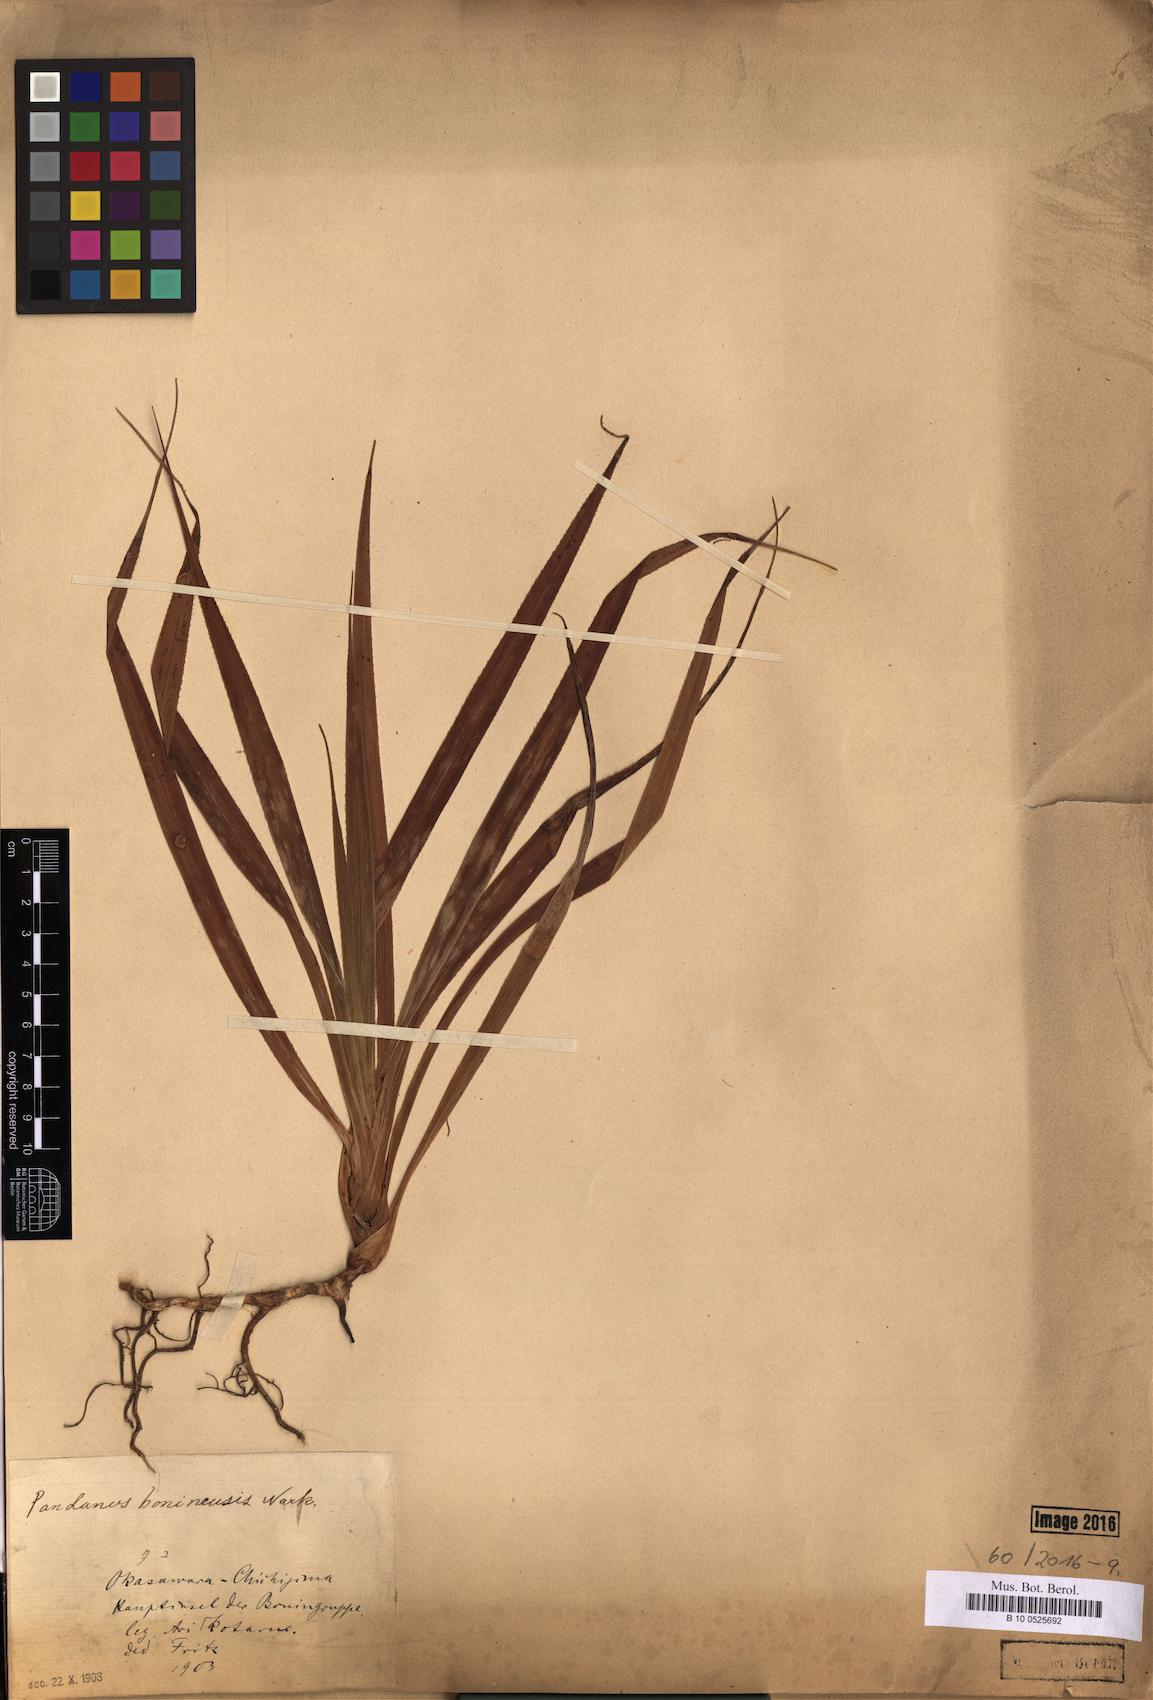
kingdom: Plantae
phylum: Tracheophyta
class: Liliopsida
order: Pandanales
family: Pandanaceae
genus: Pandanus
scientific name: Pandanus boninensis
